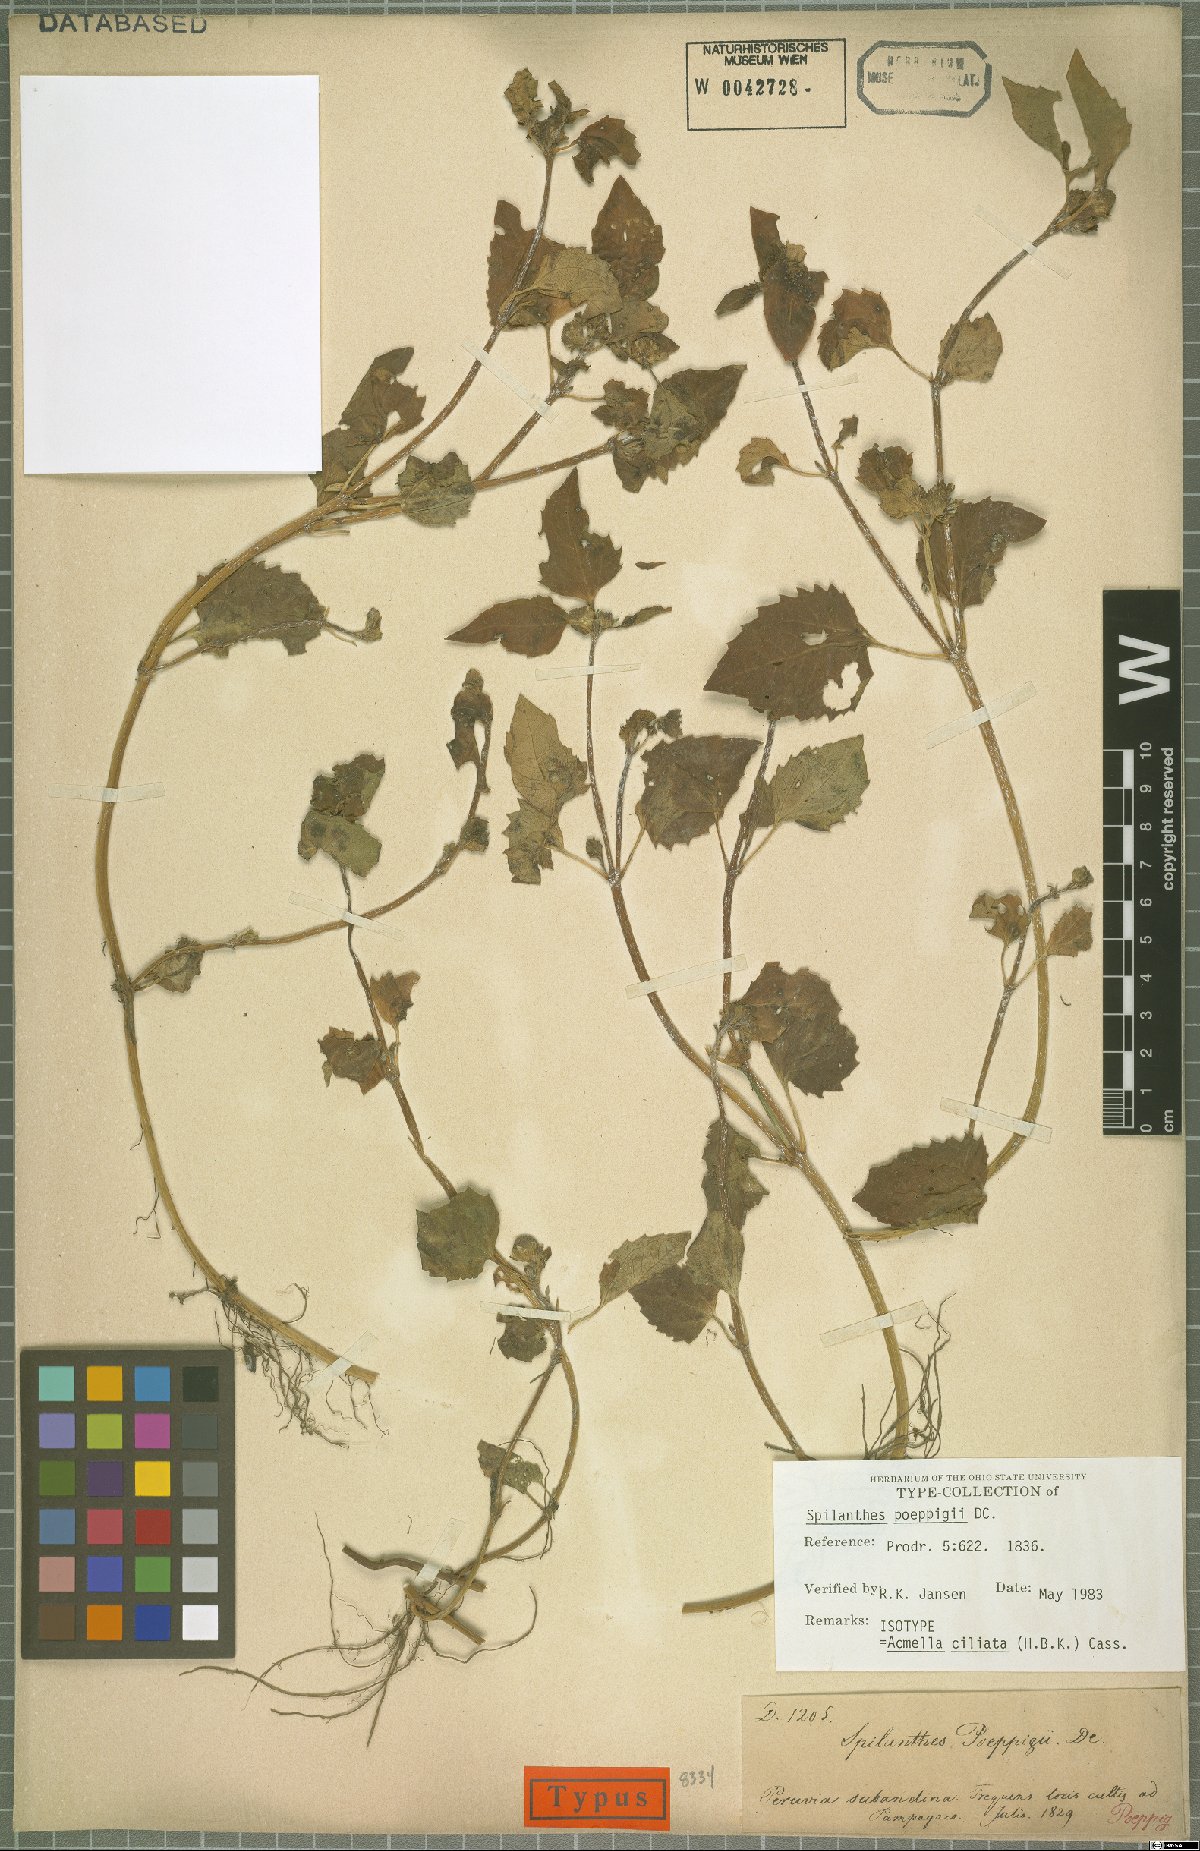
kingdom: Plantae
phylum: Tracheophyta
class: Magnoliopsida
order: Asterales
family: Asteraceae
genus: Acmella
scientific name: Acmella ciliata
